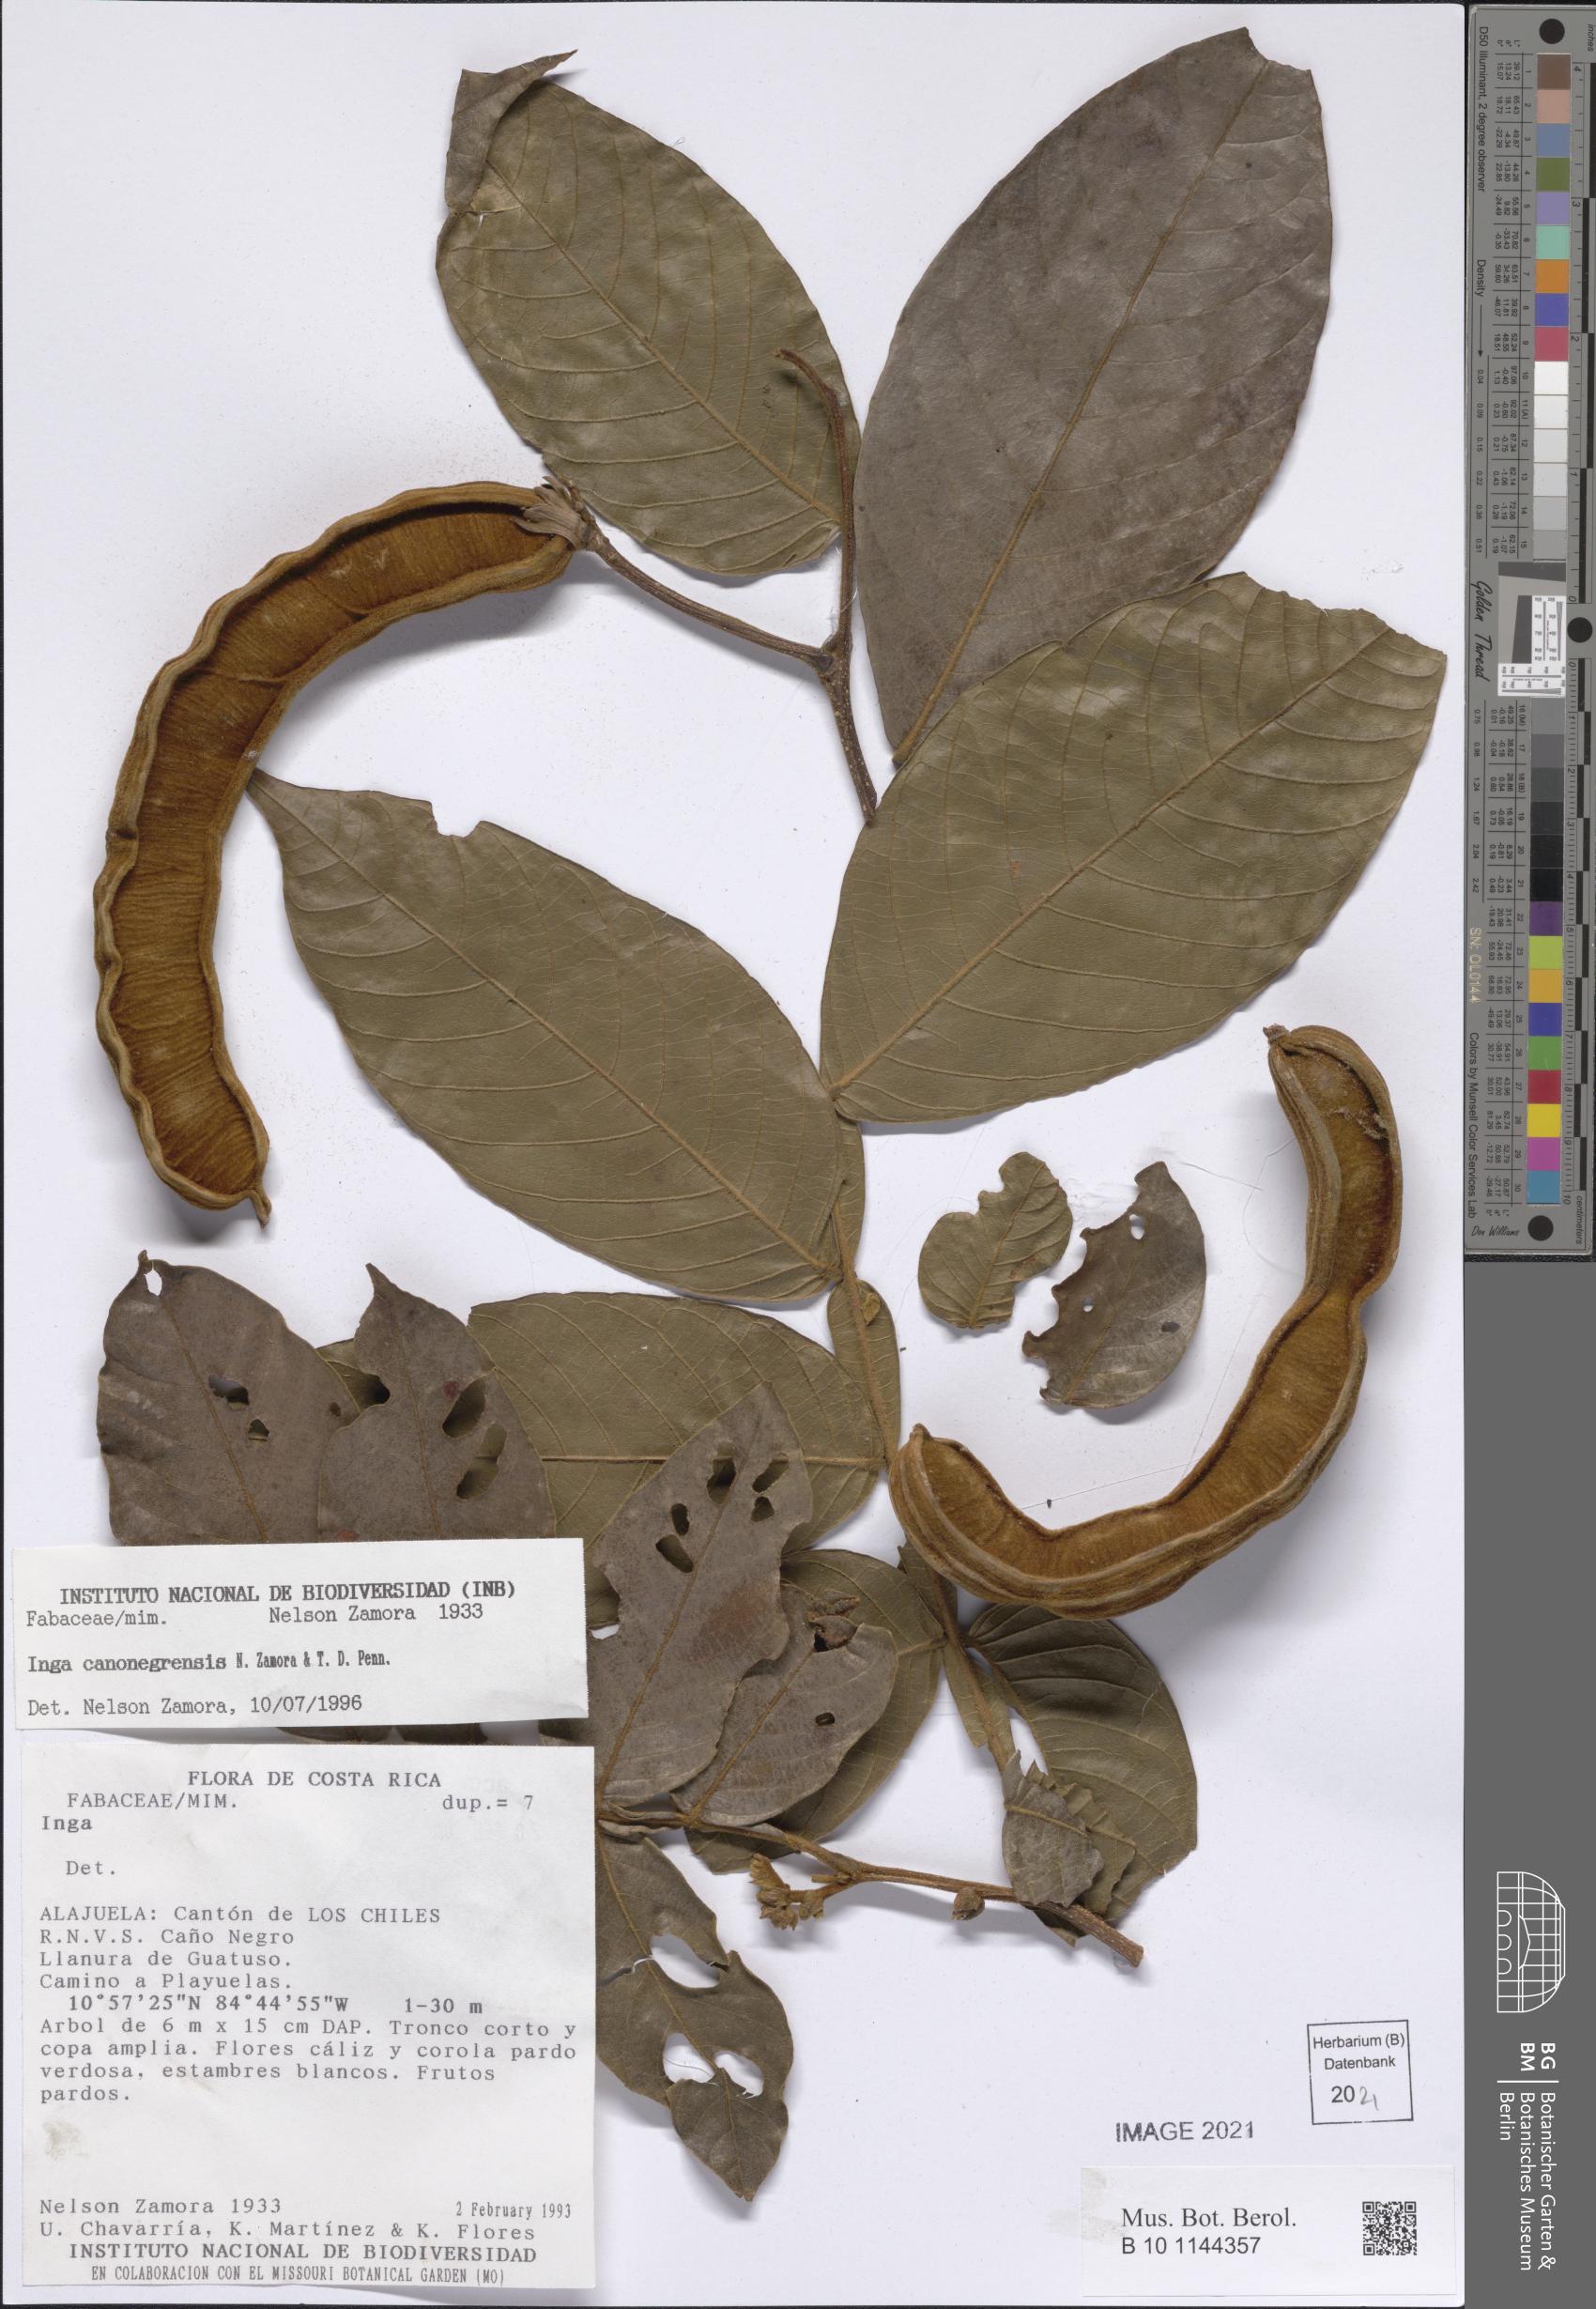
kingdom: Plantae
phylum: Tracheophyta
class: Magnoliopsida
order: Fabales
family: Fabaceae
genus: Inga
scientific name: Inga canonegrensis
